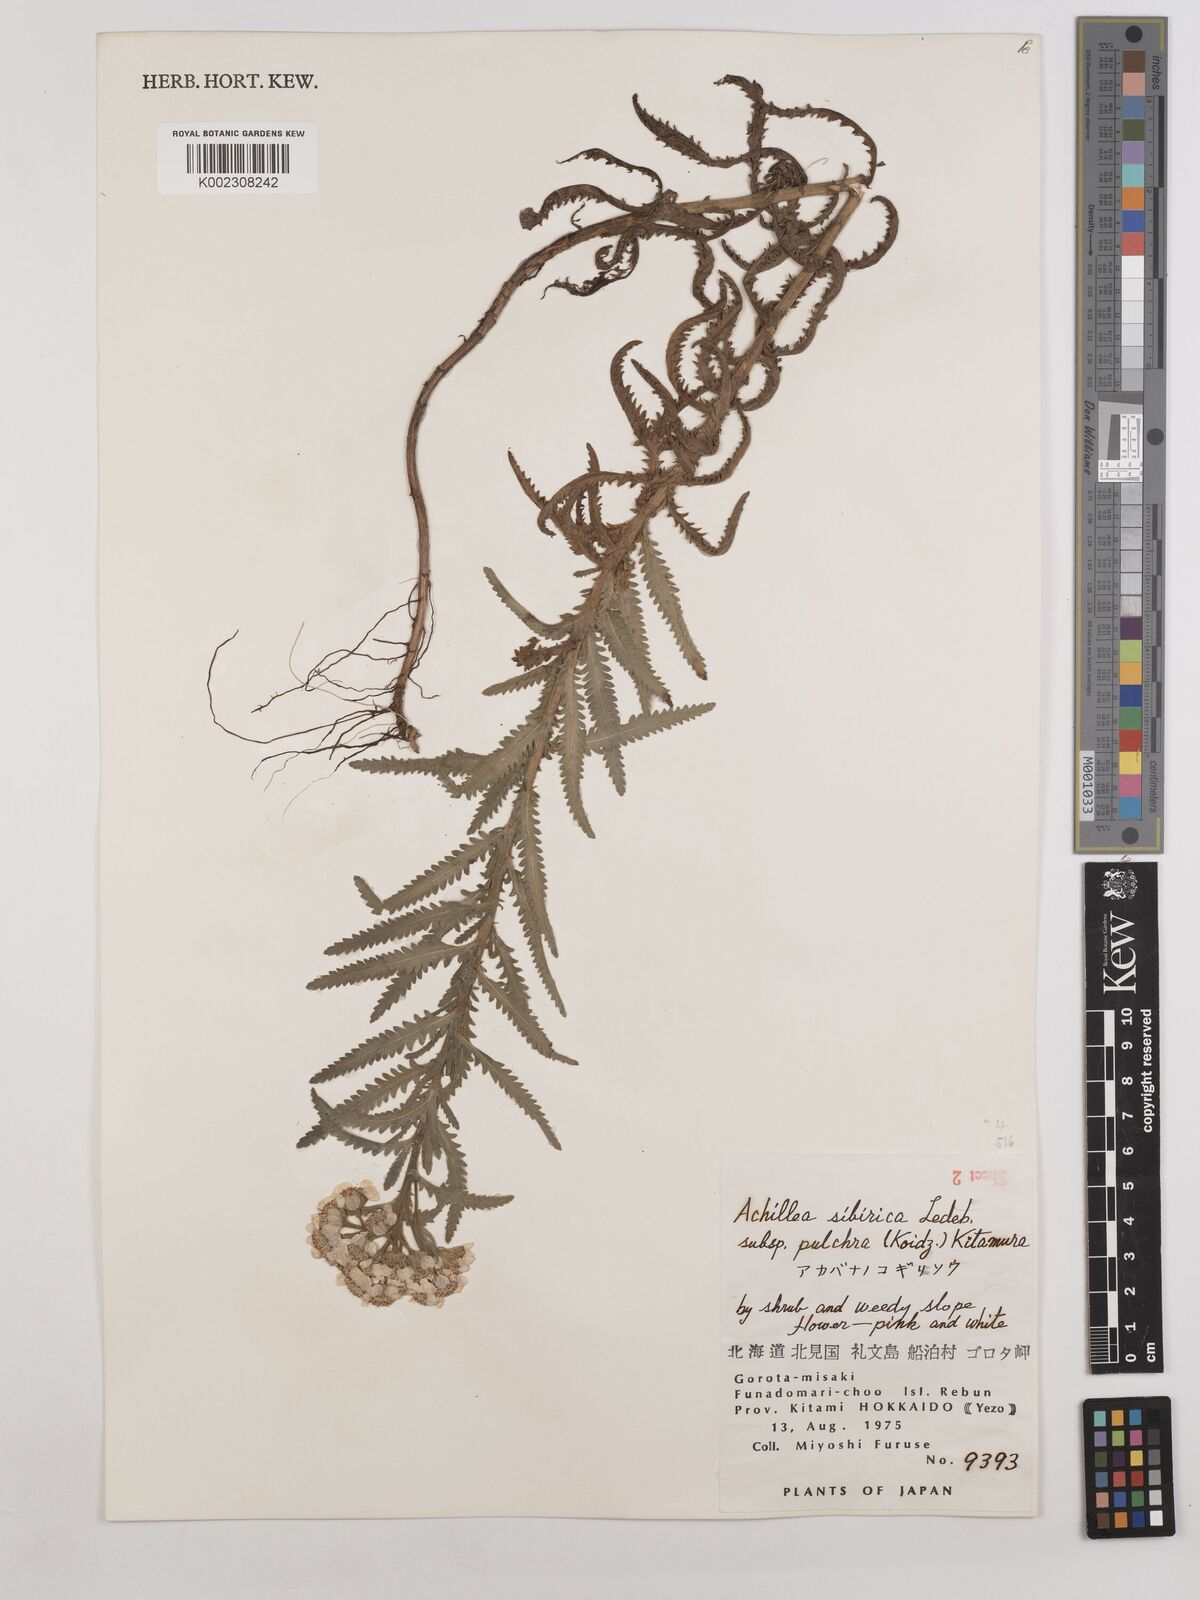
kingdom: Plantae
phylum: Tracheophyta
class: Magnoliopsida
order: Asterales
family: Asteraceae
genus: Achillea
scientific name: Achillea alpina
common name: Siberian yarrow
